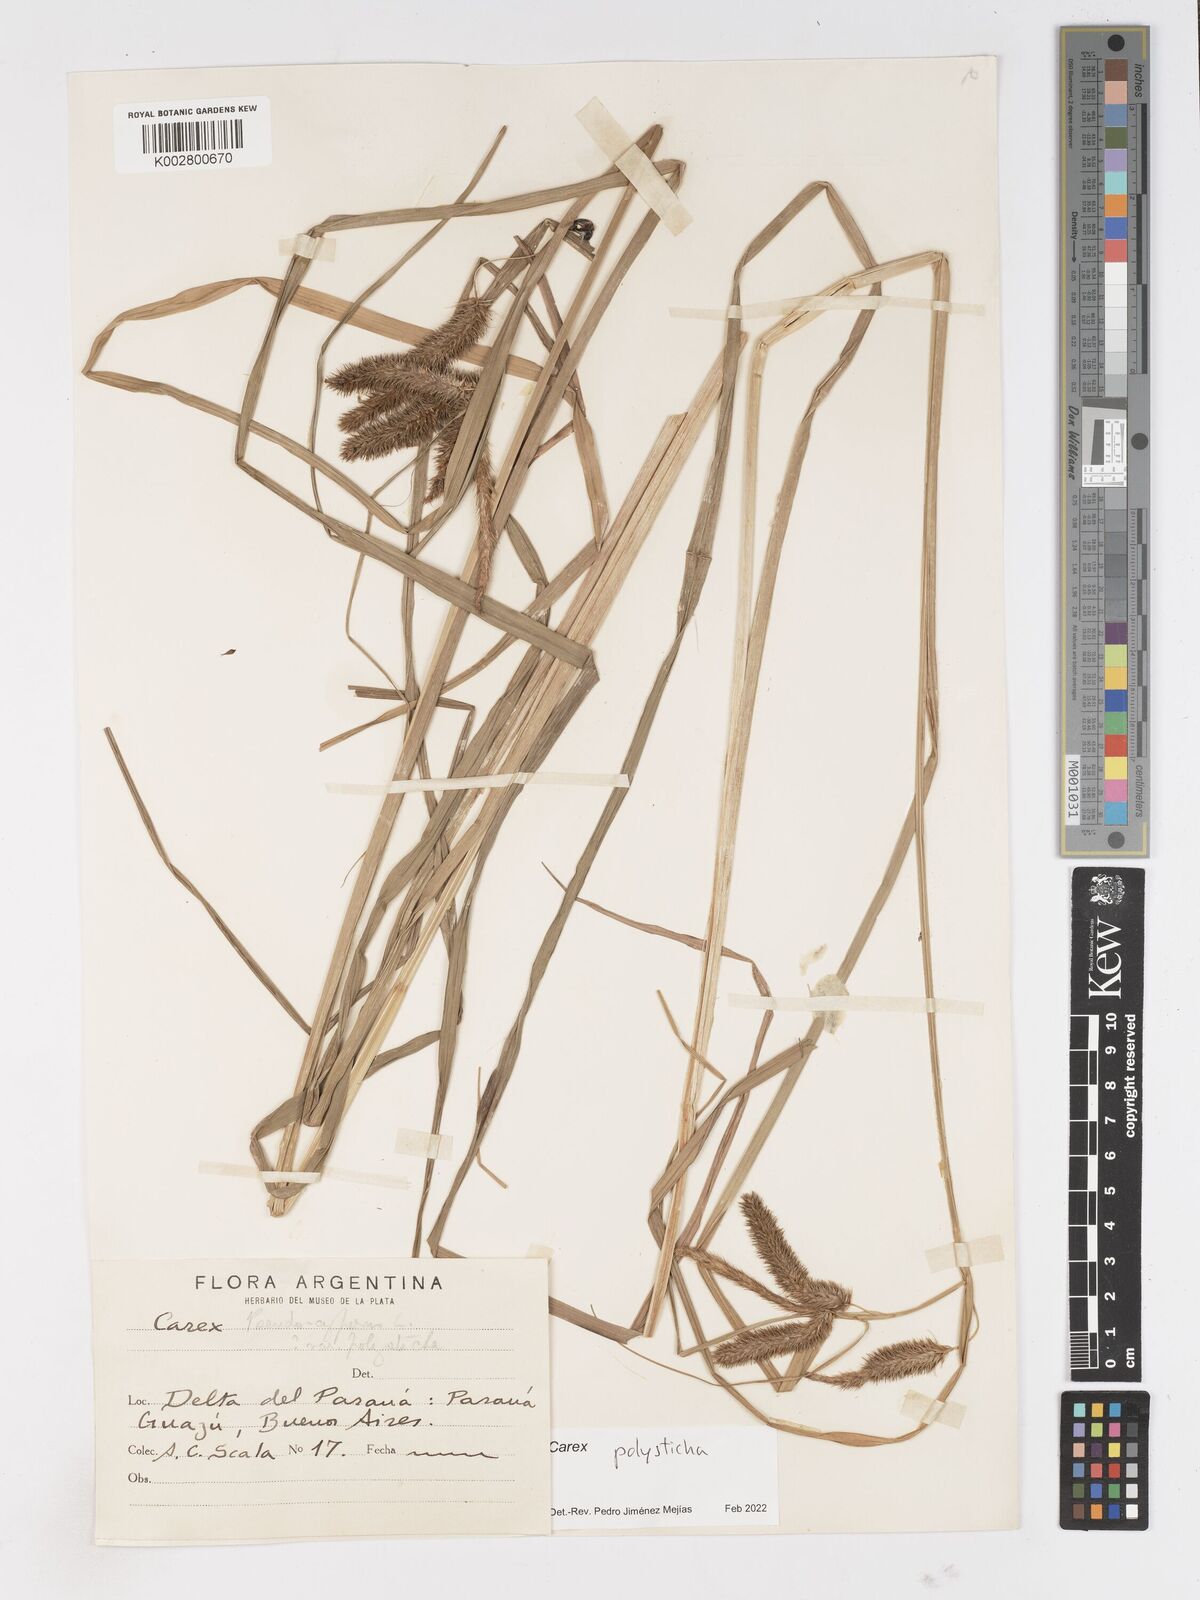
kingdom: Plantae
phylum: Tracheophyta
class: Liliopsida
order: Poales
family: Cyperaceae
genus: Carex
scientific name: Carex polysticha
